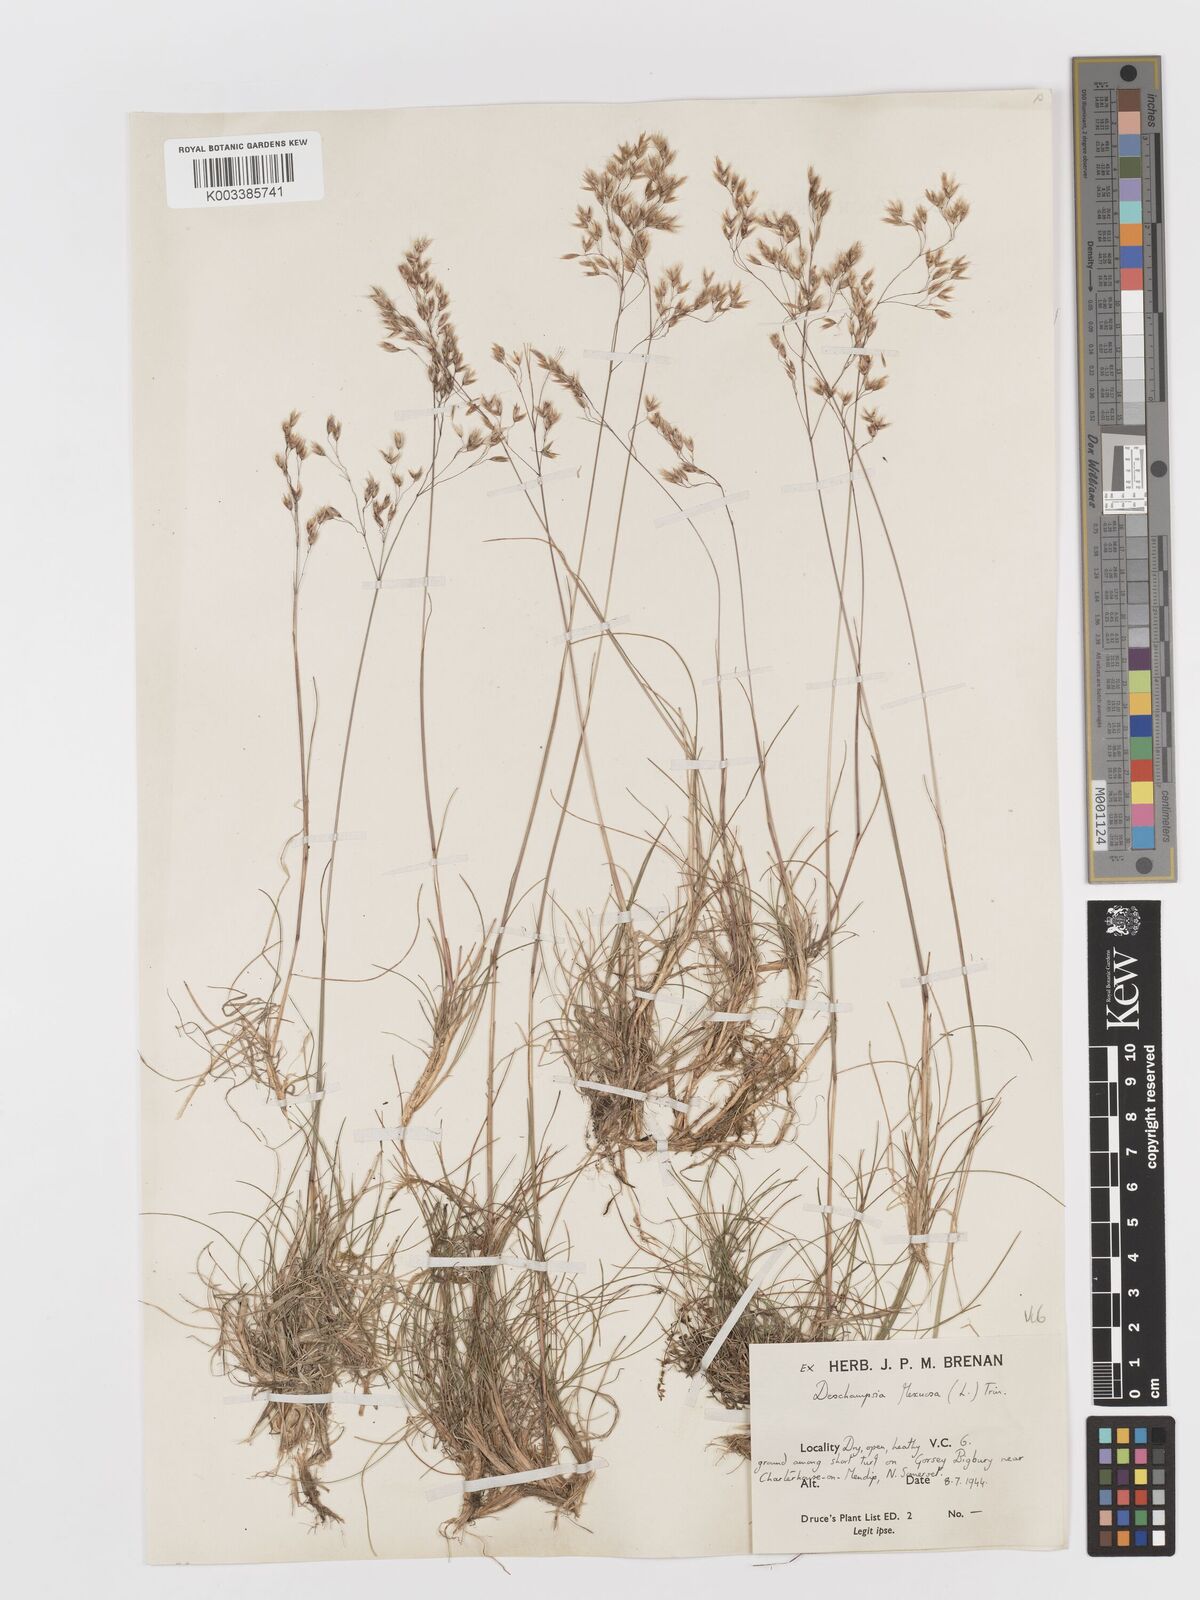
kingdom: Plantae
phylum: Tracheophyta
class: Liliopsida
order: Poales
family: Poaceae
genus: Avenella
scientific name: Avenella flexuosa
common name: Wavy hairgrass
